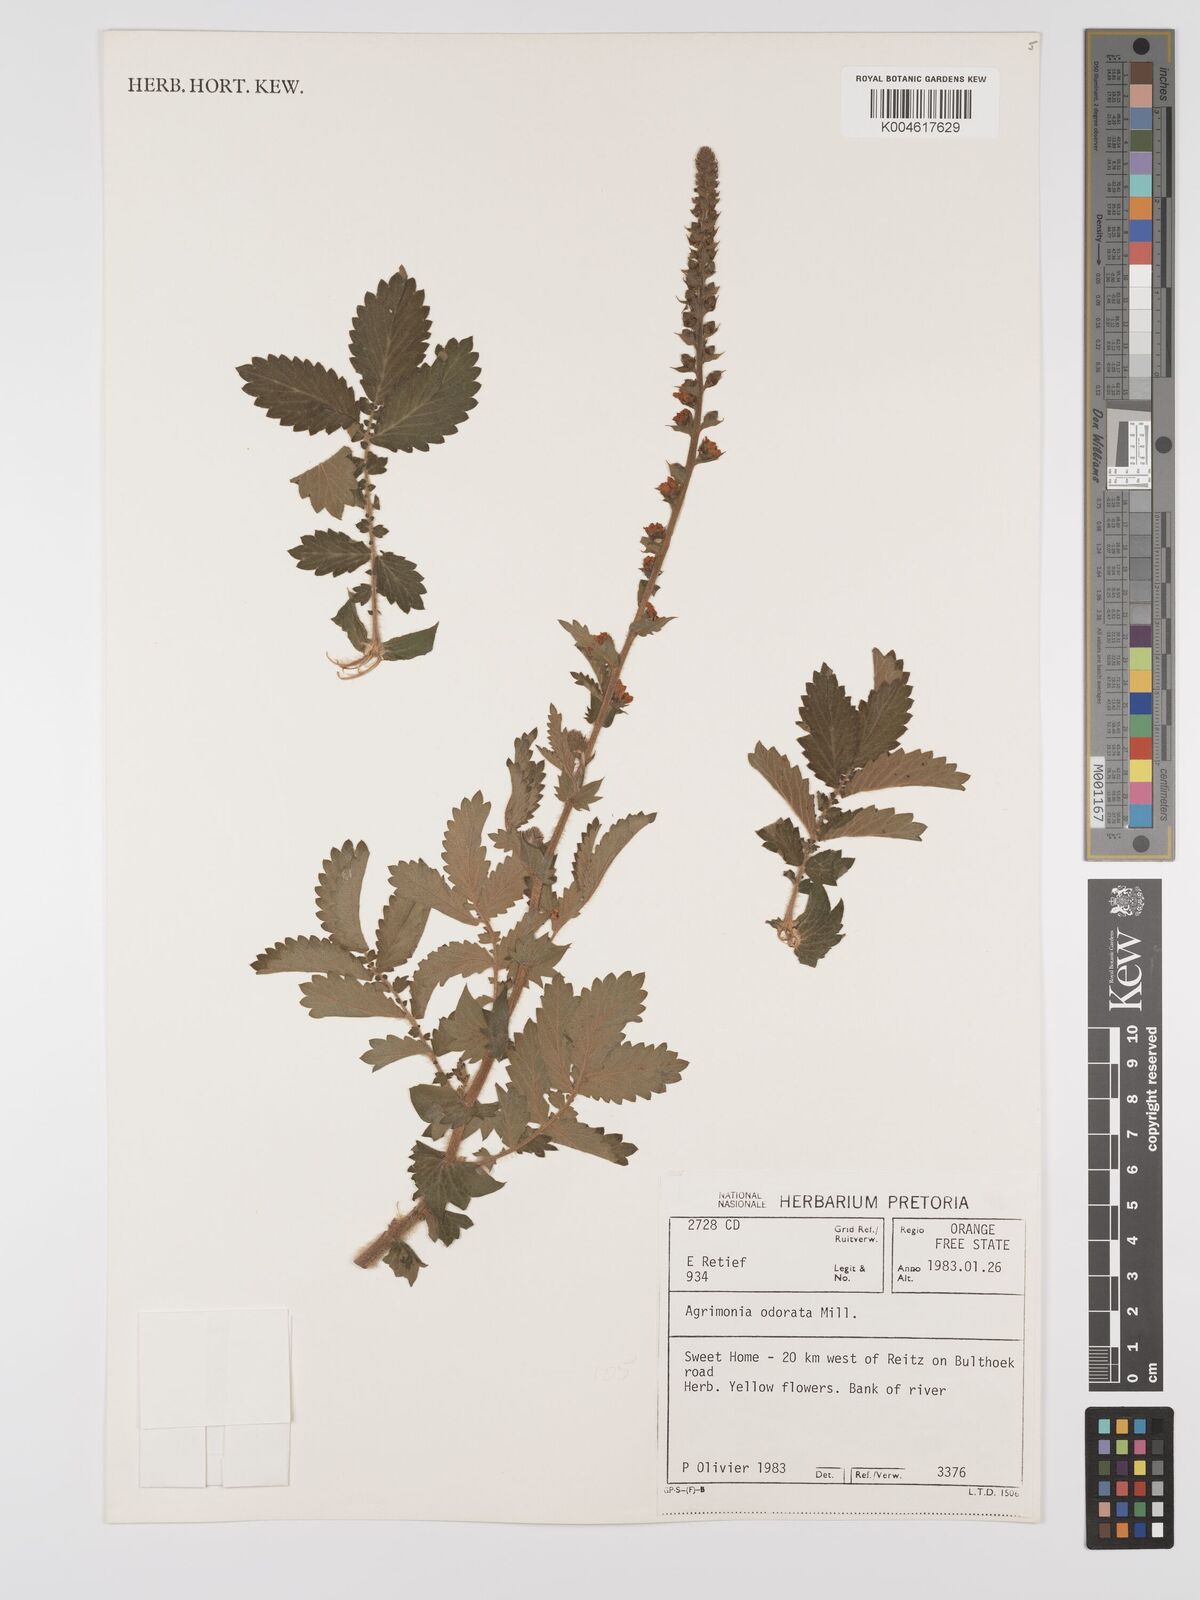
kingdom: Plantae
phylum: Tracheophyta
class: Magnoliopsida
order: Rosales
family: Rosaceae
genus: Agrimonia
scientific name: Agrimonia repens
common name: Creeping agrimony
